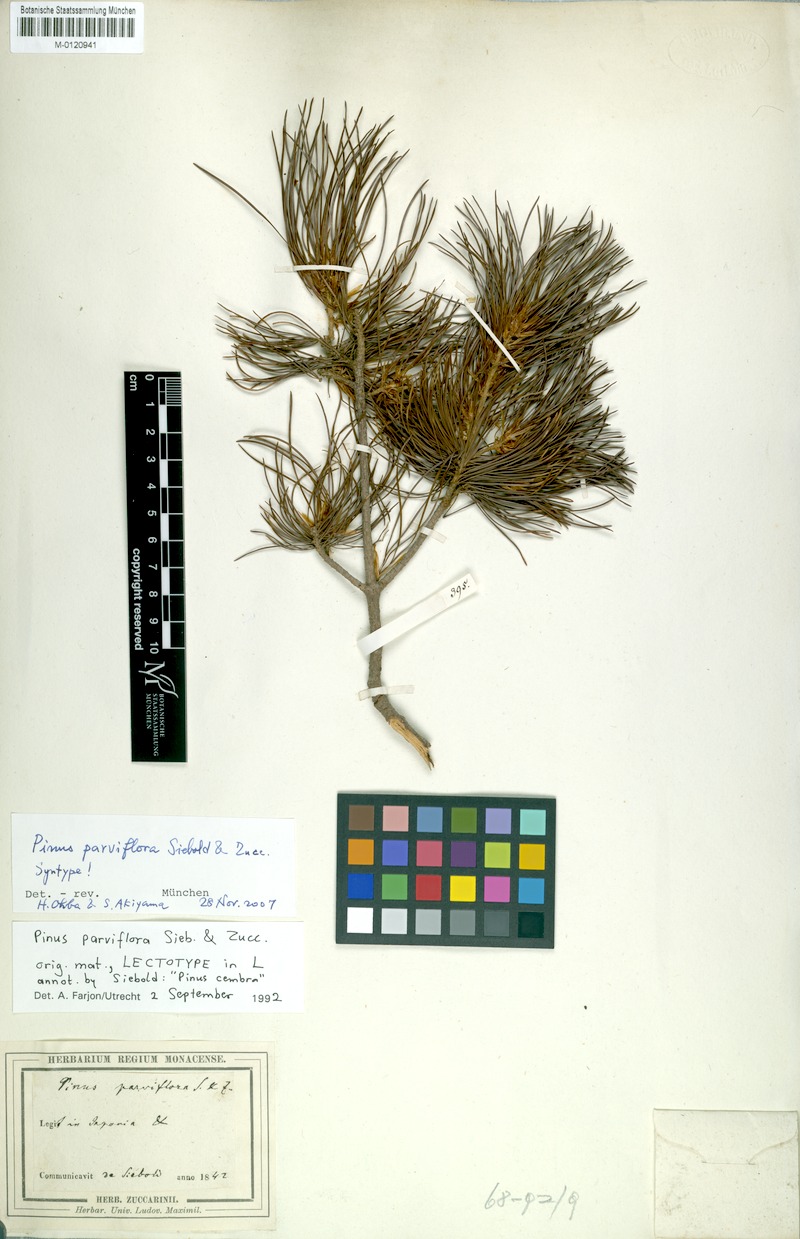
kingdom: Plantae
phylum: Tracheophyta
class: Pinopsida
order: Pinales
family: Pinaceae
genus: Pinus
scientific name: Pinus parviflora
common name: Japanese white pine
